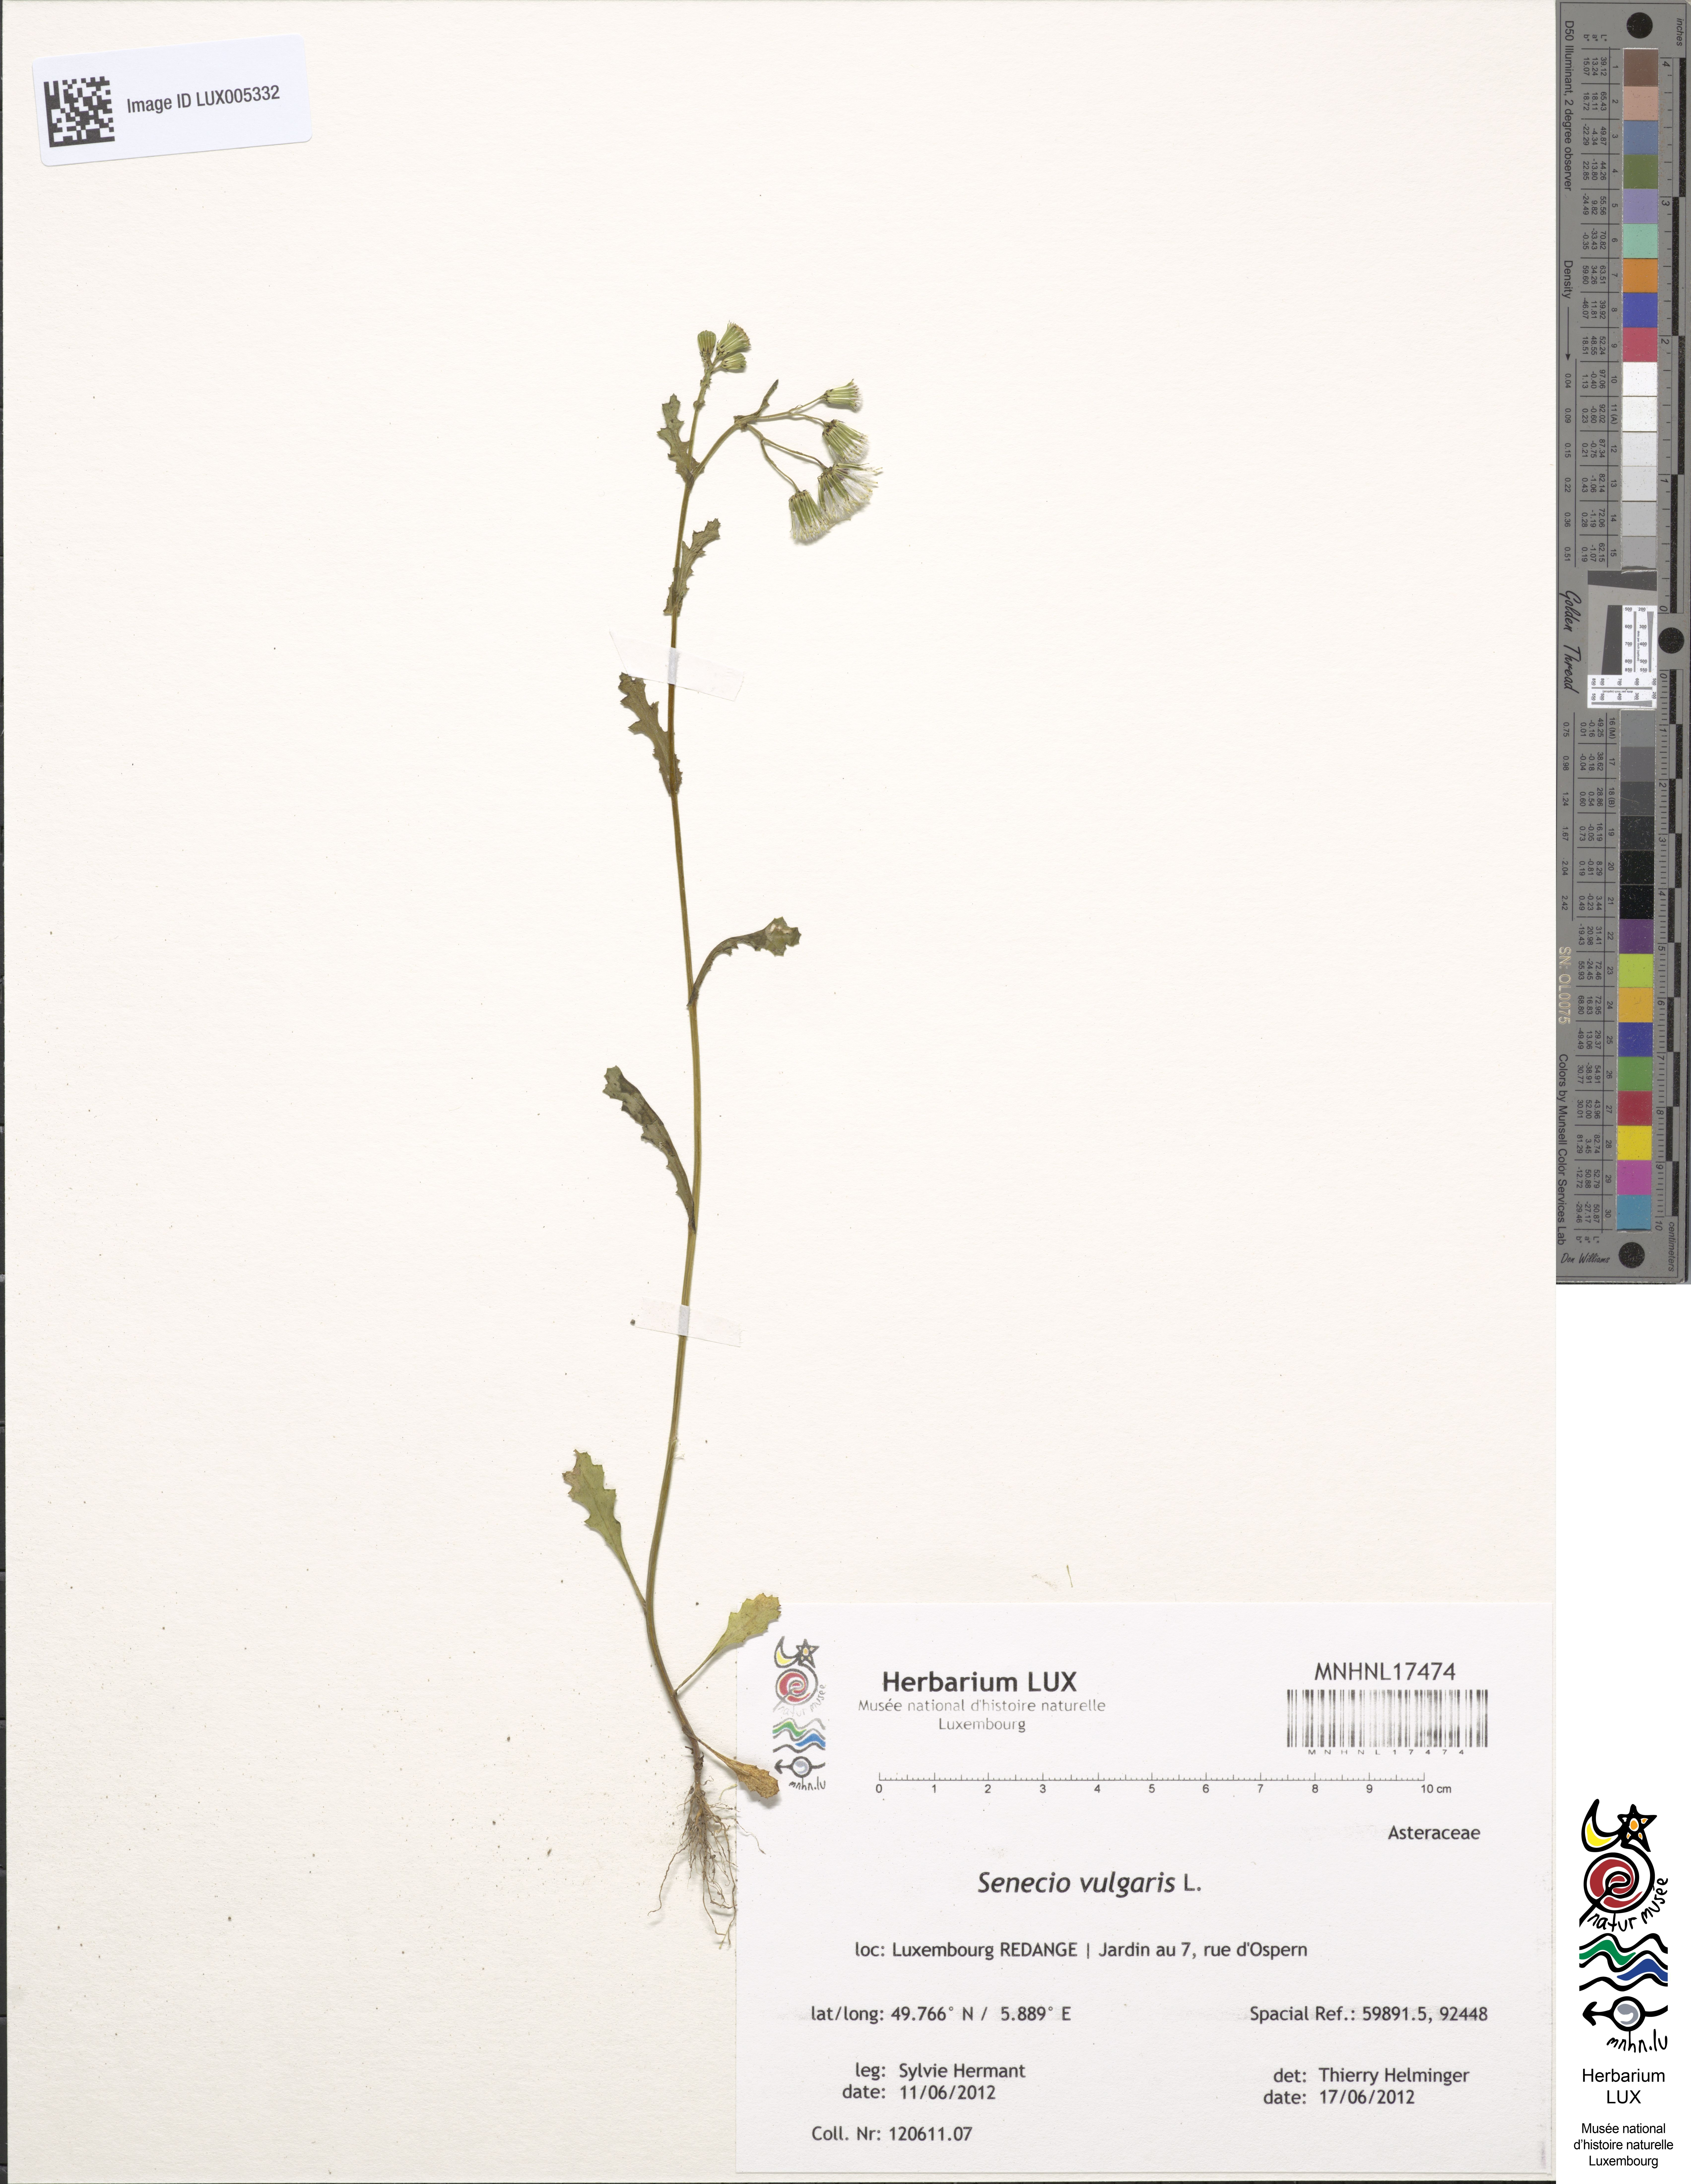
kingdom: Plantae
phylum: Tracheophyta
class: Magnoliopsida
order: Asterales
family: Asteraceae
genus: Senecio
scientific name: Senecio vulgaris
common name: Old-man-in-the-spring
